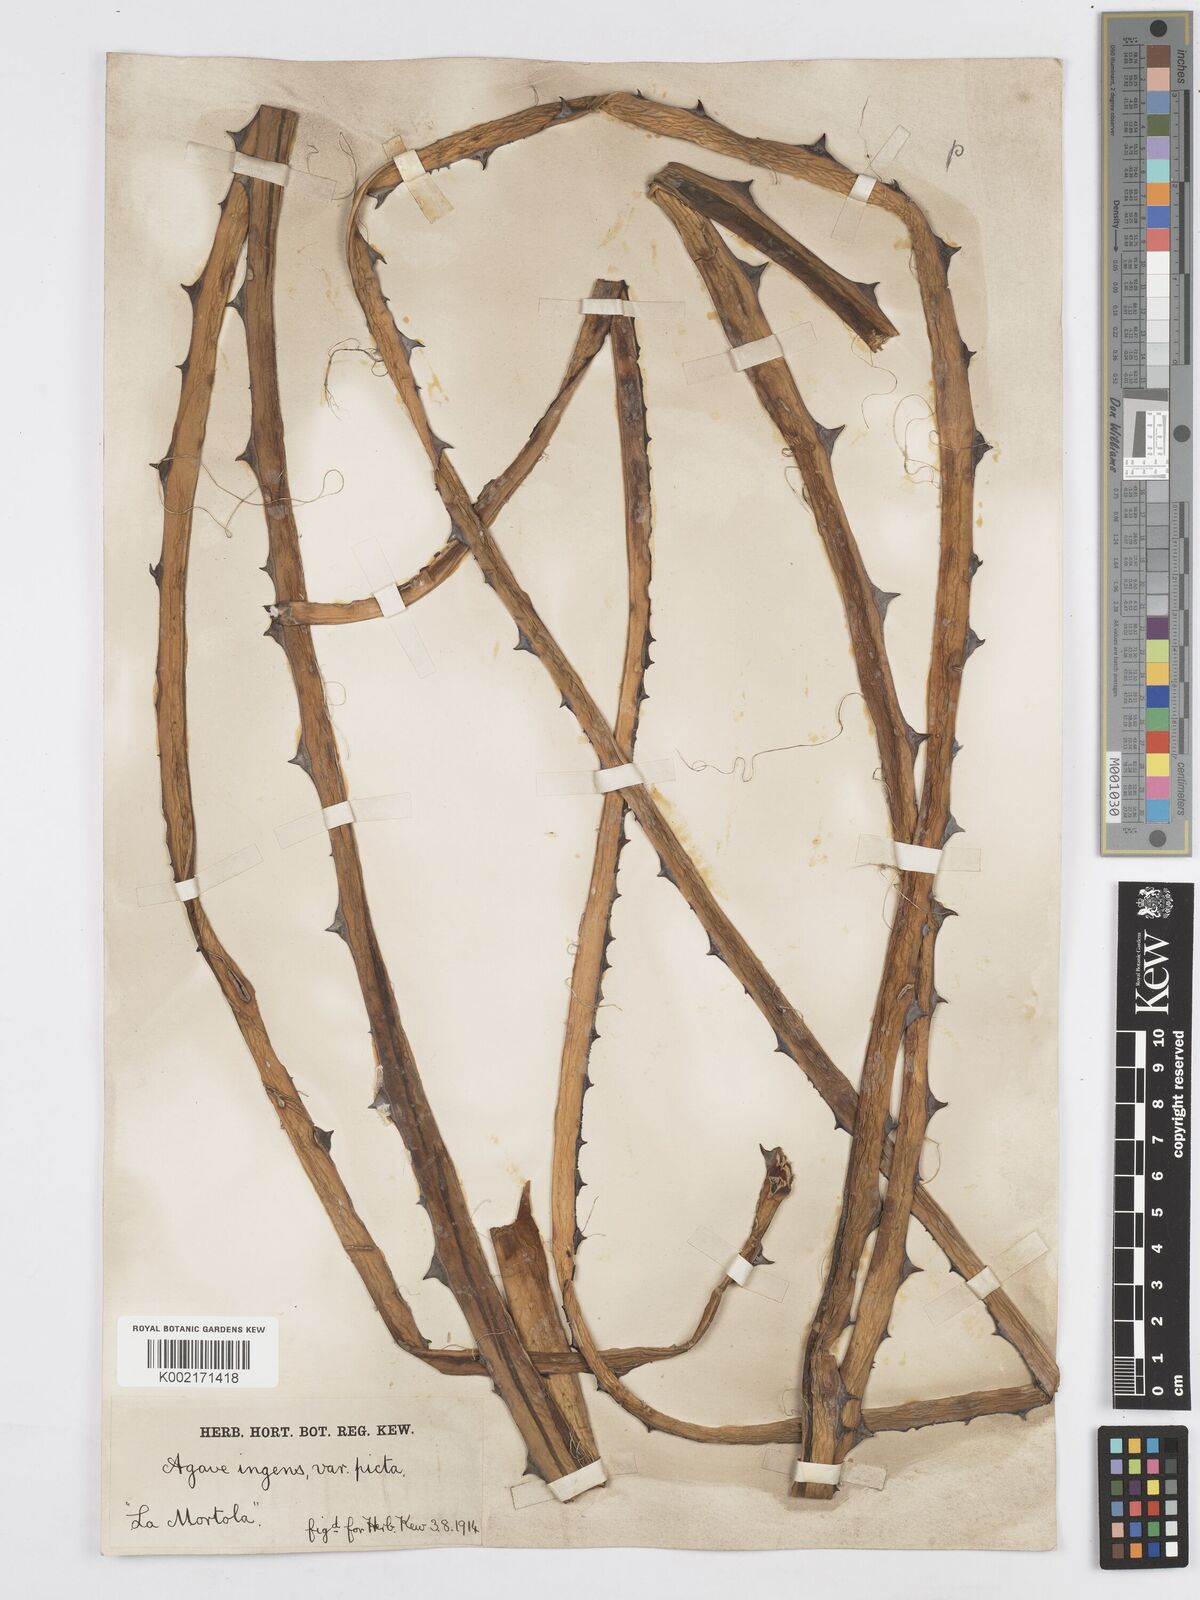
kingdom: Plantae
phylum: Tracheophyta
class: Liliopsida
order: Asparagales
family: Asparagaceae
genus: Agave
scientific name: Agave americana
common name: Centuryplant
